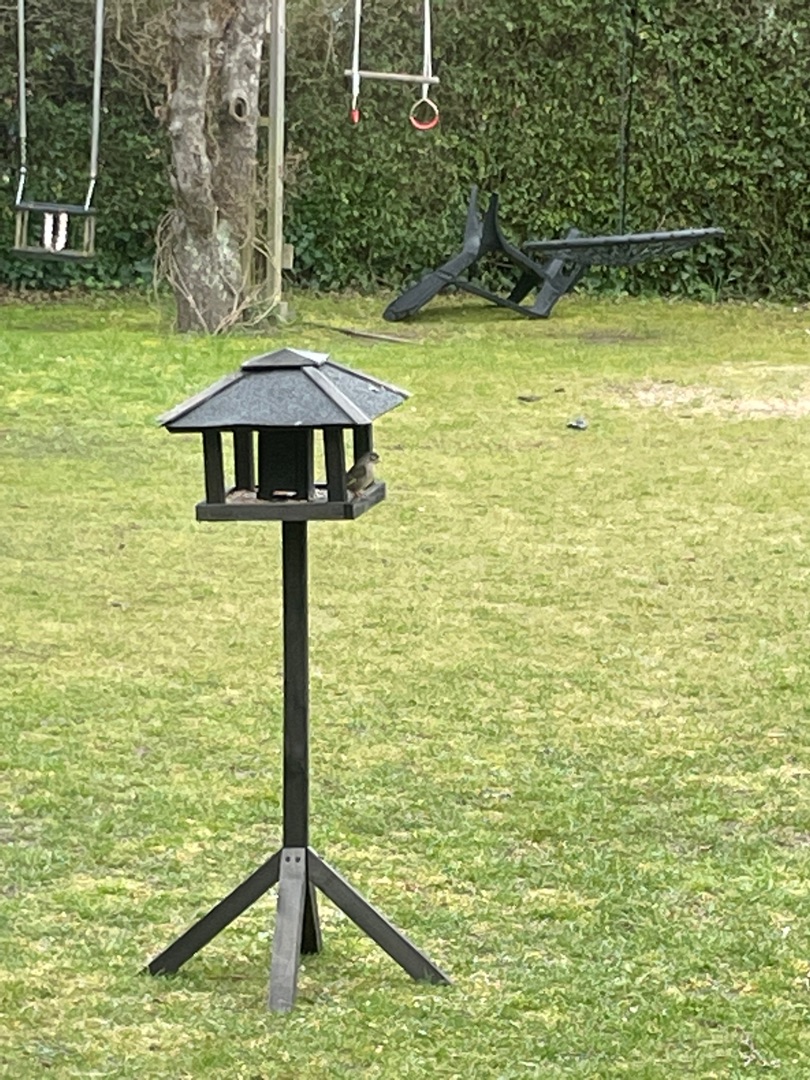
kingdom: Plantae
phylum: Tracheophyta
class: Liliopsida
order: Poales
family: Poaceae
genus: Chloris
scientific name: Chloris chloris
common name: Grønirisk
